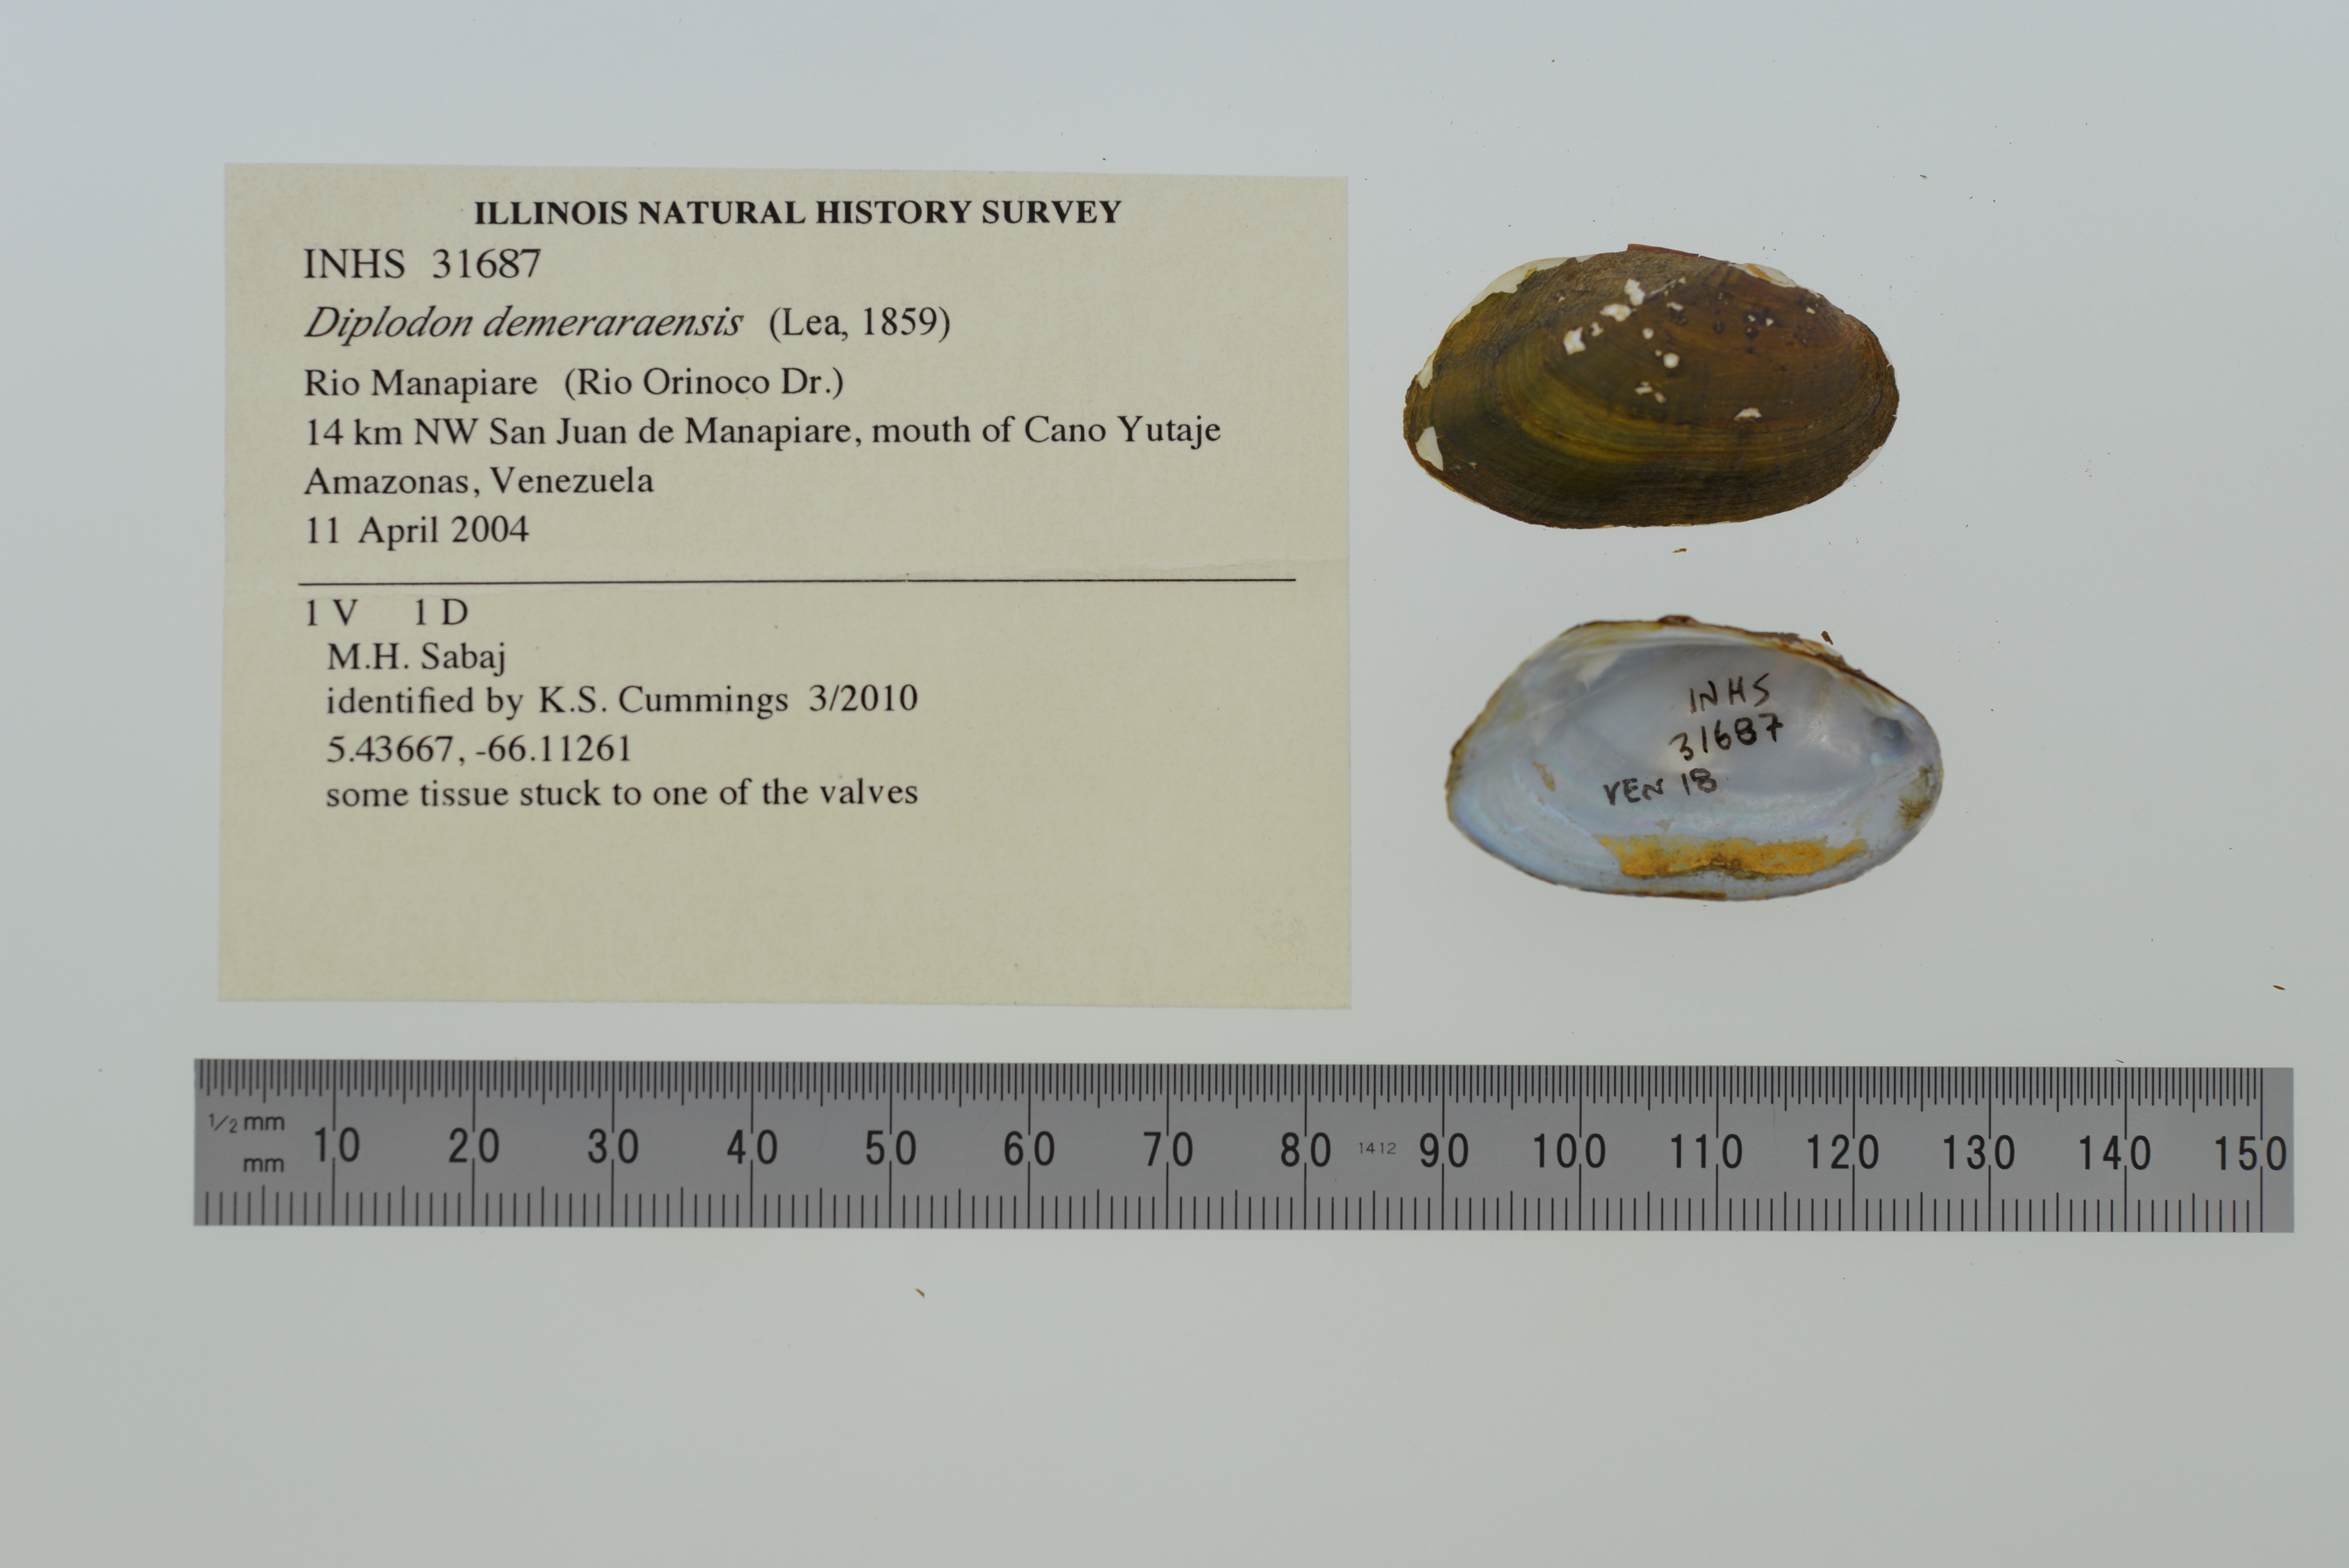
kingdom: Animalia
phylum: Mollusca
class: Bivalvia
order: Unionida
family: Hyriidae
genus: Diplodon
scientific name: Diplodon demeraraensis
